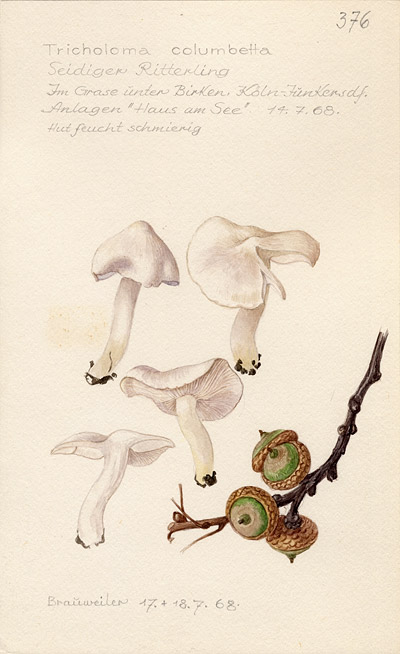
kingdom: Fungi
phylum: Basidiomycota
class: Agaricomycetes
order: Agaricales
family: Tricholomataceae
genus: Tricholoma
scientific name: Tricholoma columbetta
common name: Blue spot knight
